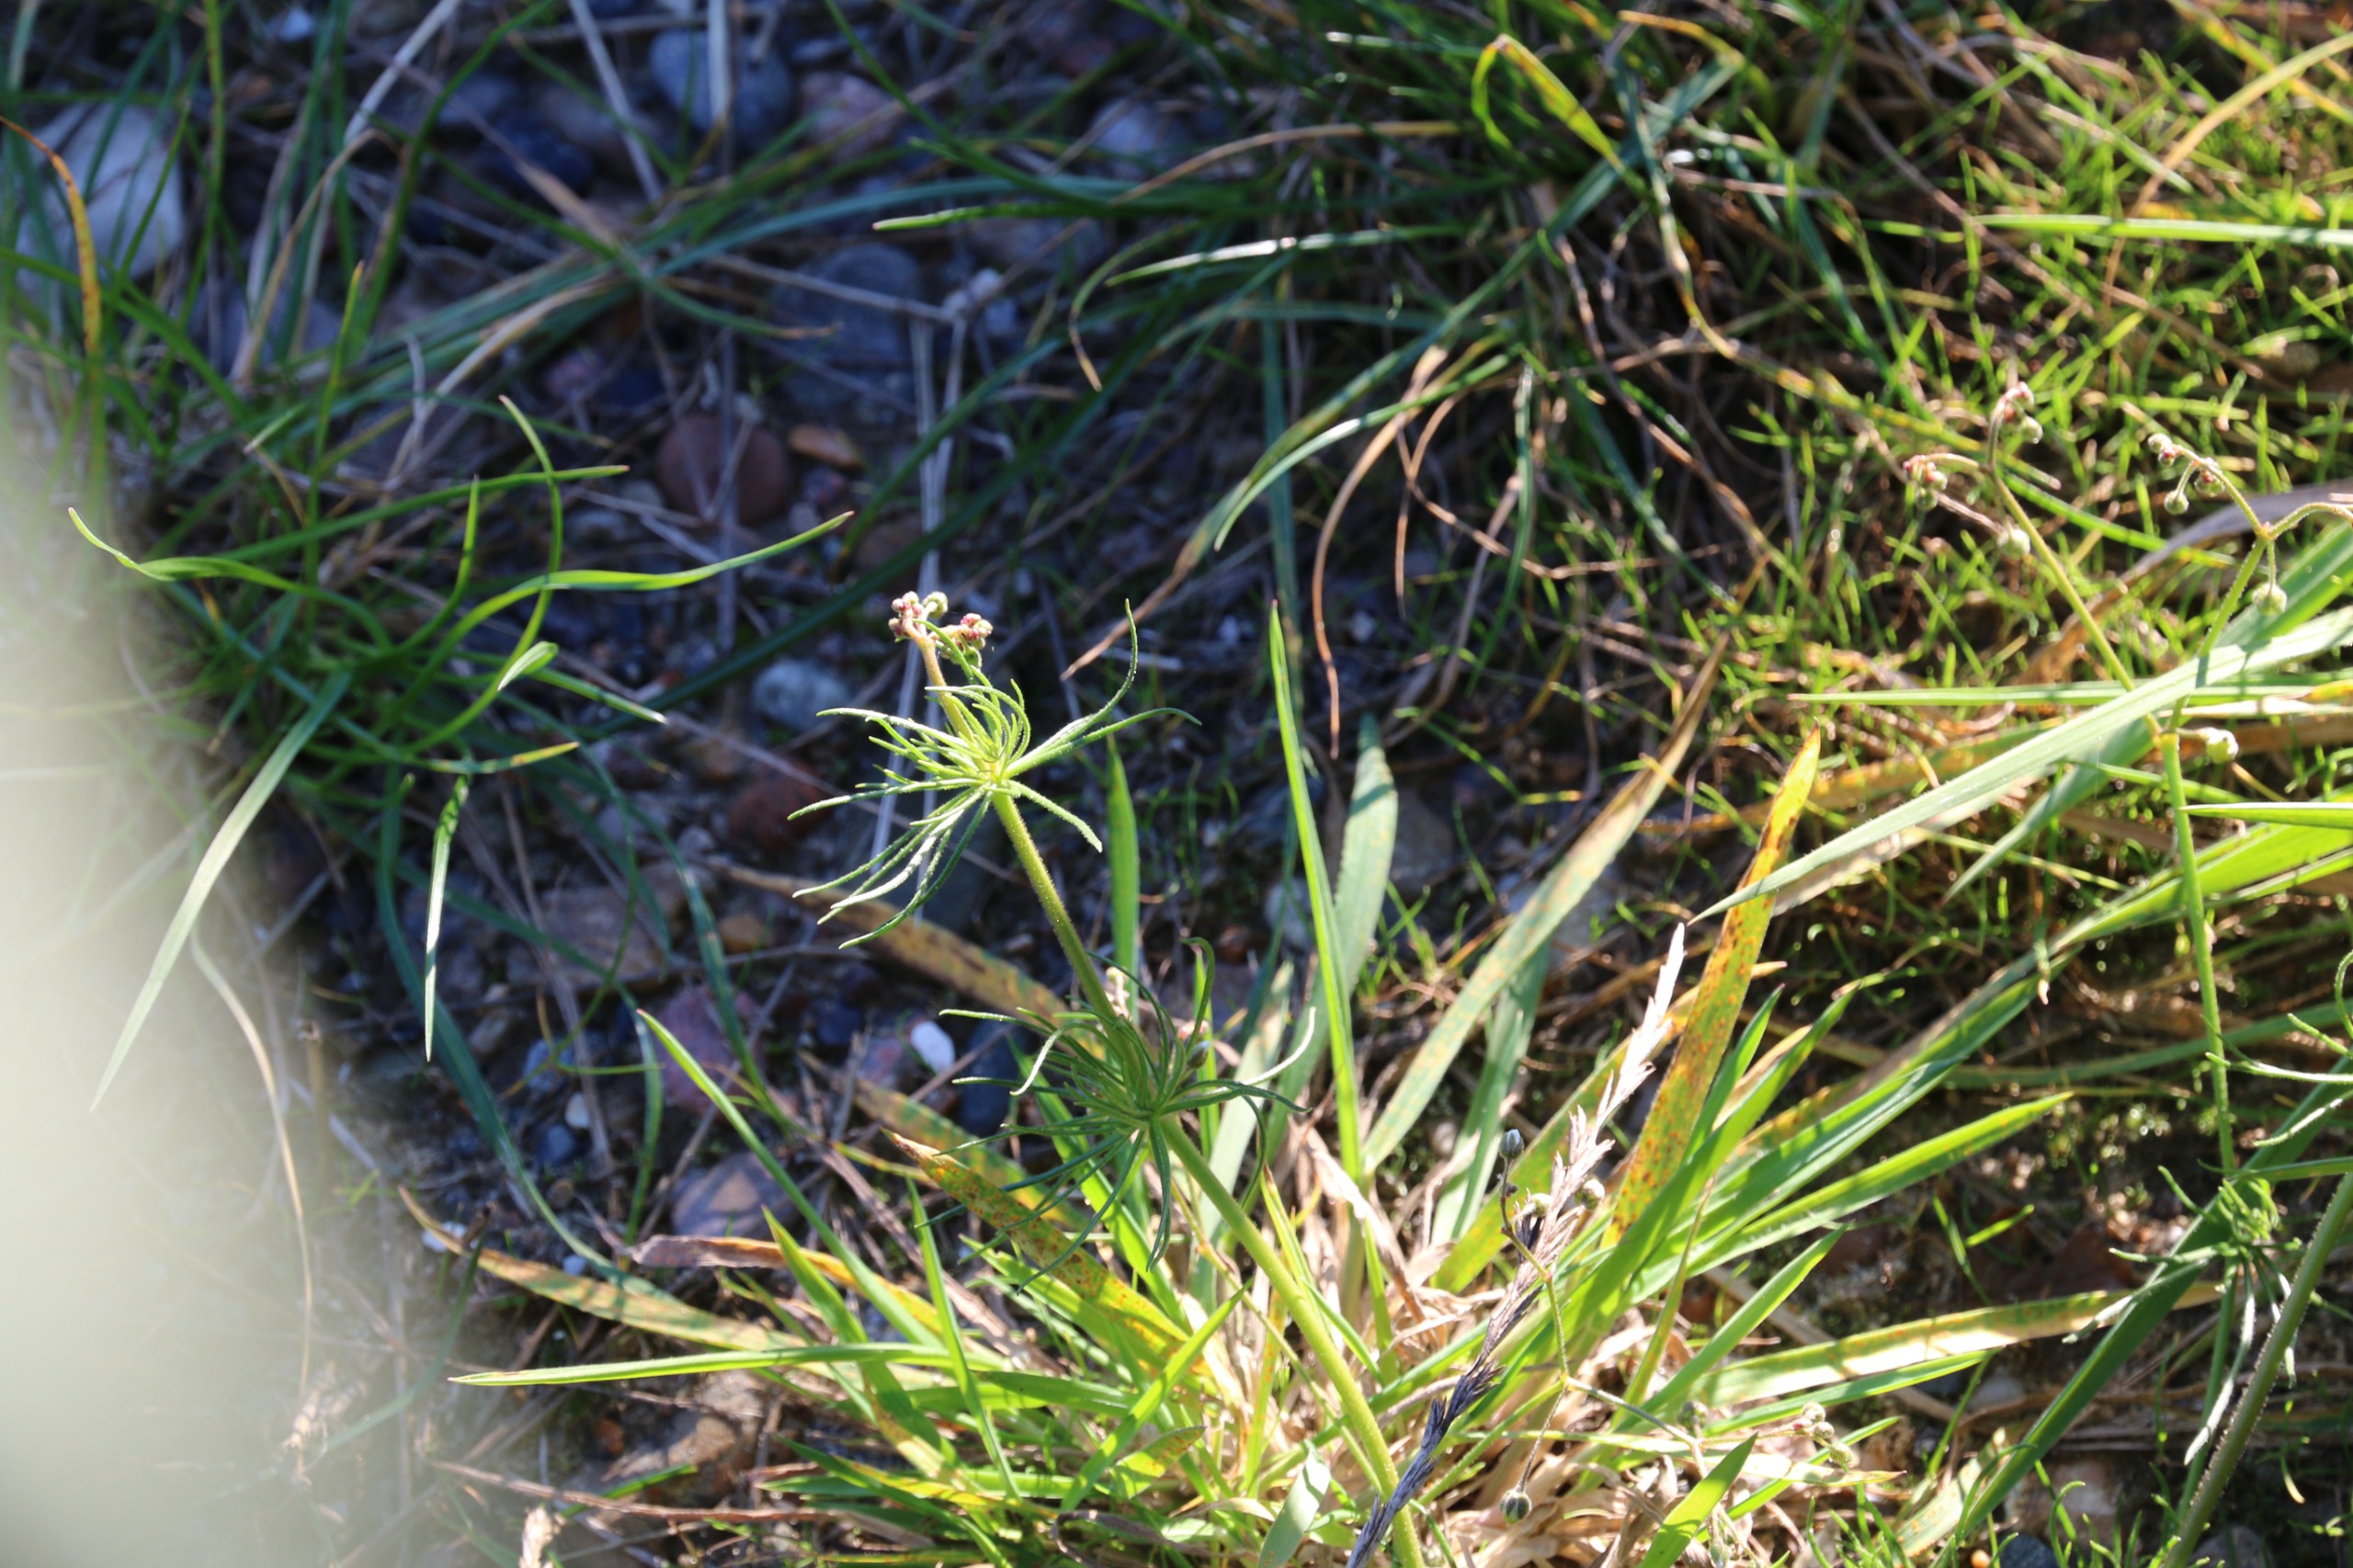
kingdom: Plantae
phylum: Tracheophyta
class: Magnoliopsida
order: Caryophyllales
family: Caryophyllaceae
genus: Spergula
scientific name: Spergula arvensis
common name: Almindelig spergel
